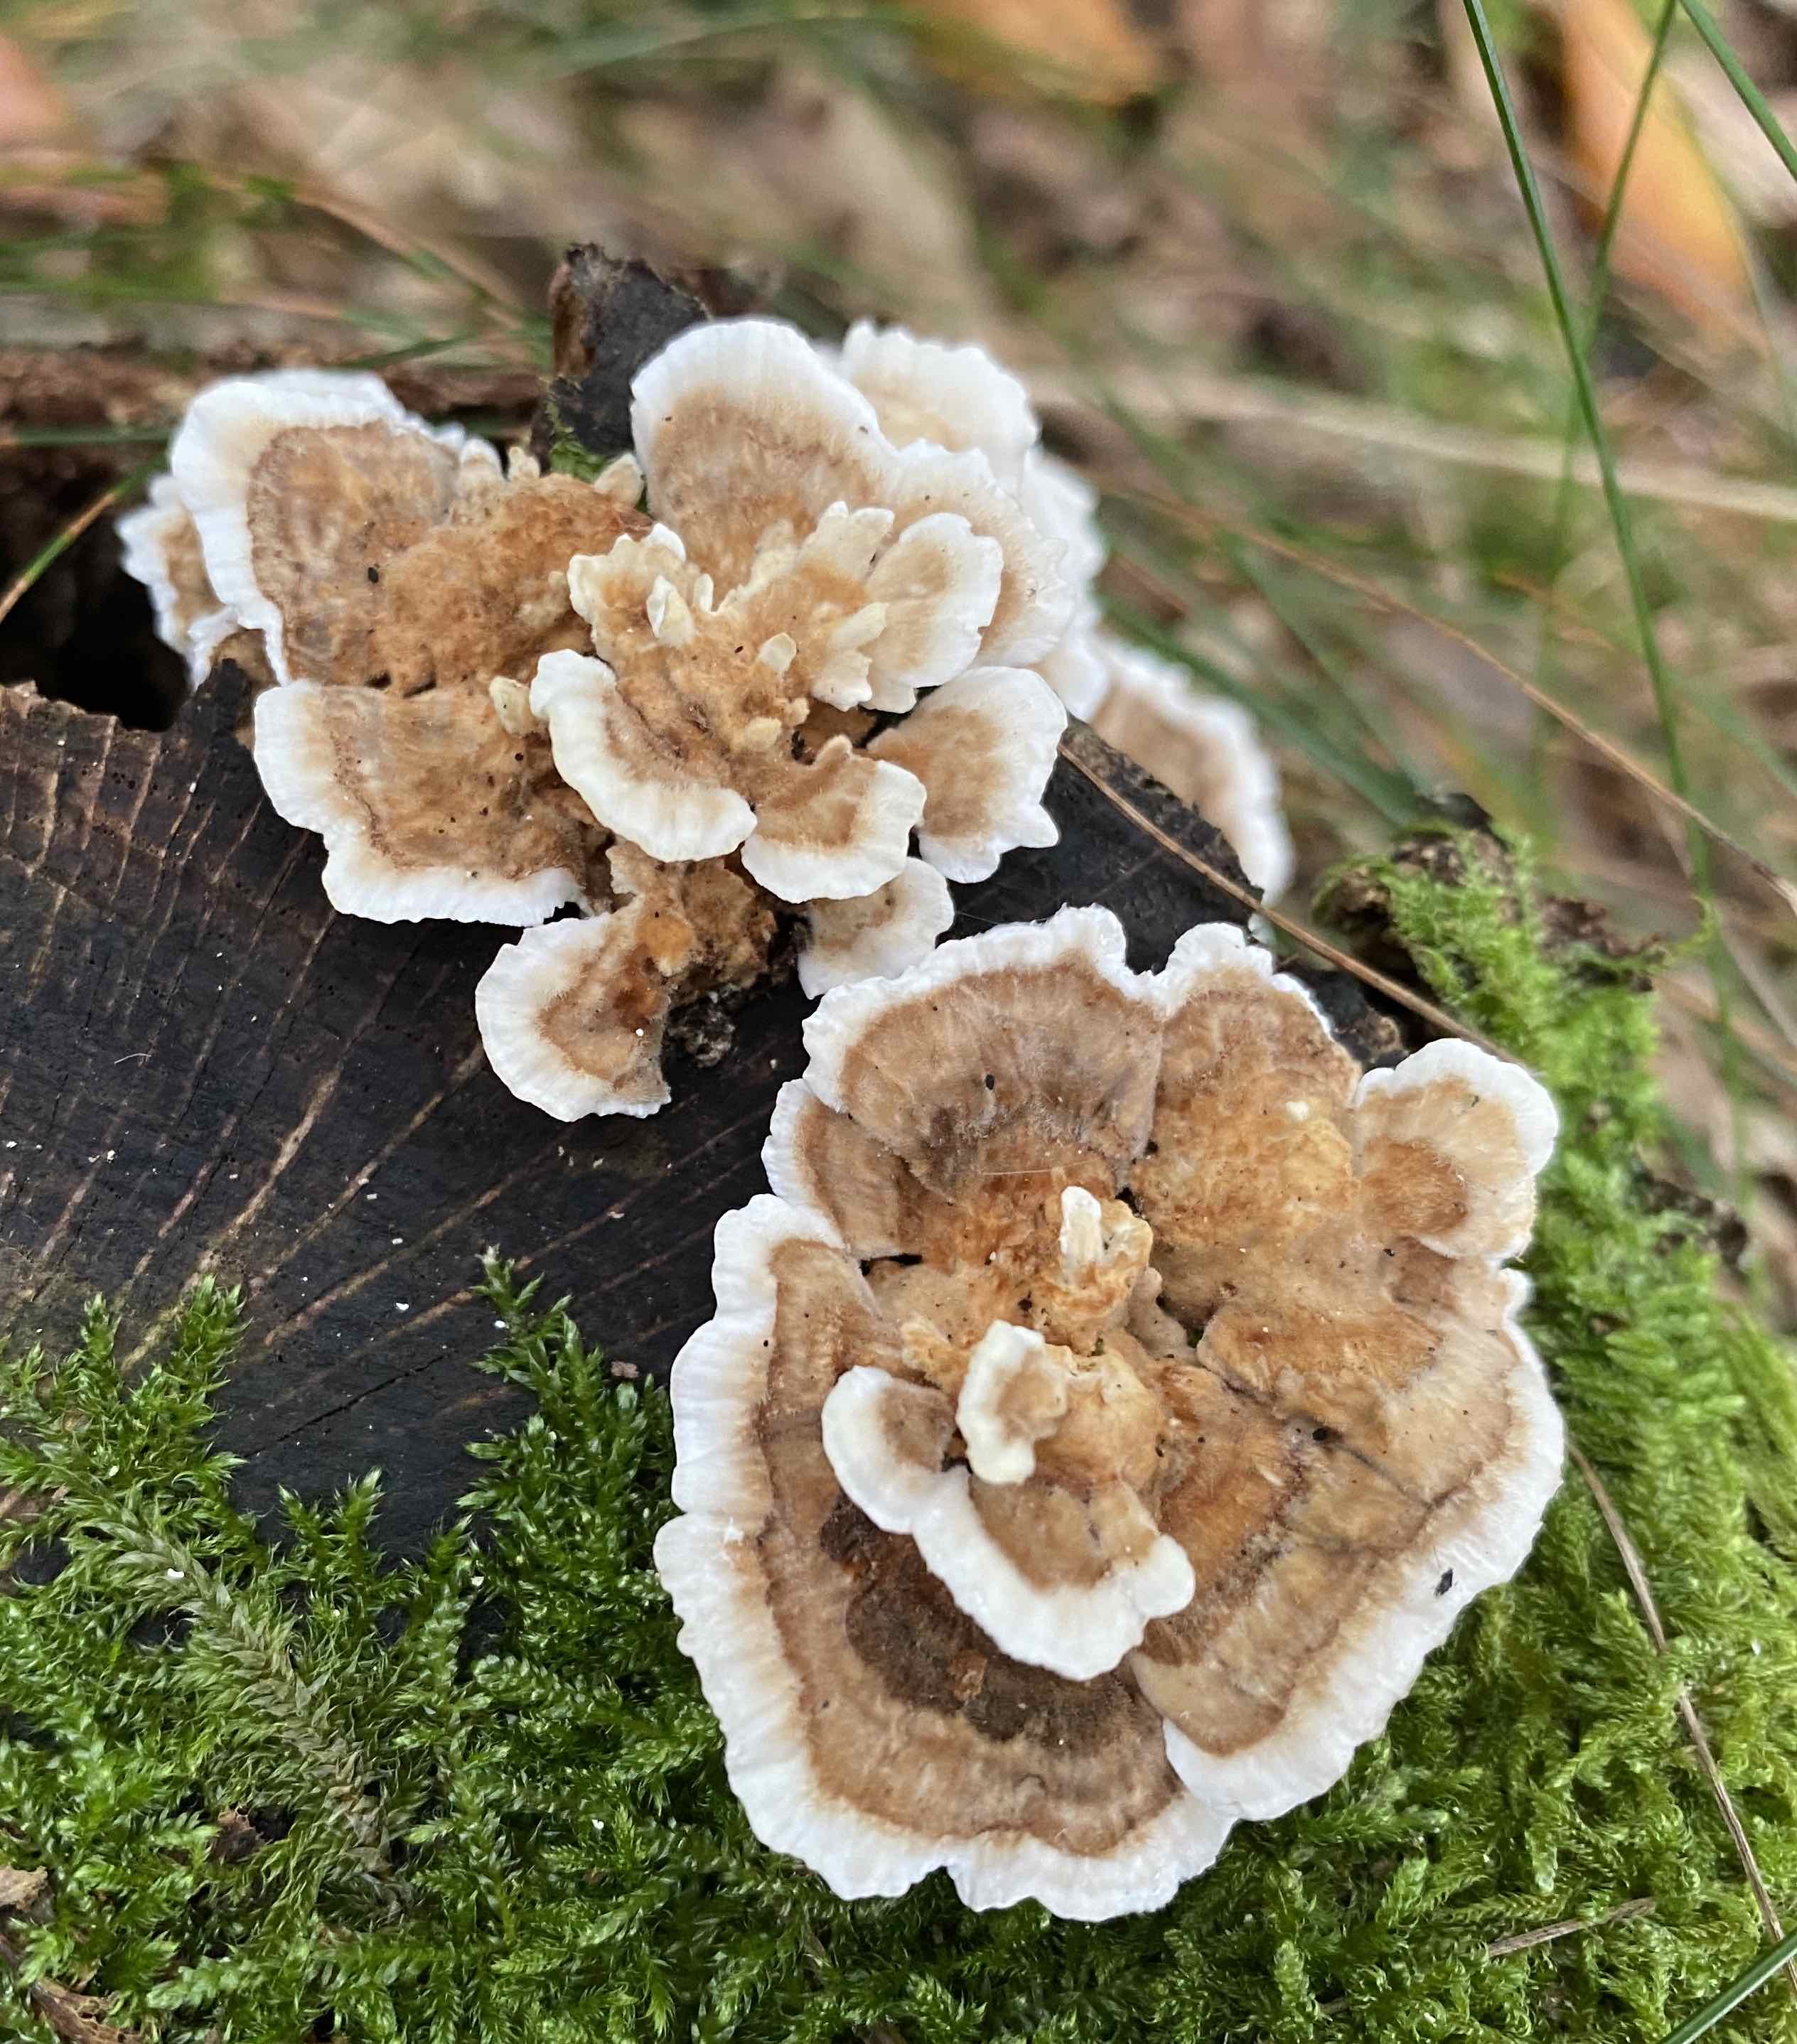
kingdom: Fungi
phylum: Basidiomycota
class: Agaricomycetes
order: Polyporales
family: Polyporaceae
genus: Trametes
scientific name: Trametes ochracea
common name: bæltet læderporesvamp
